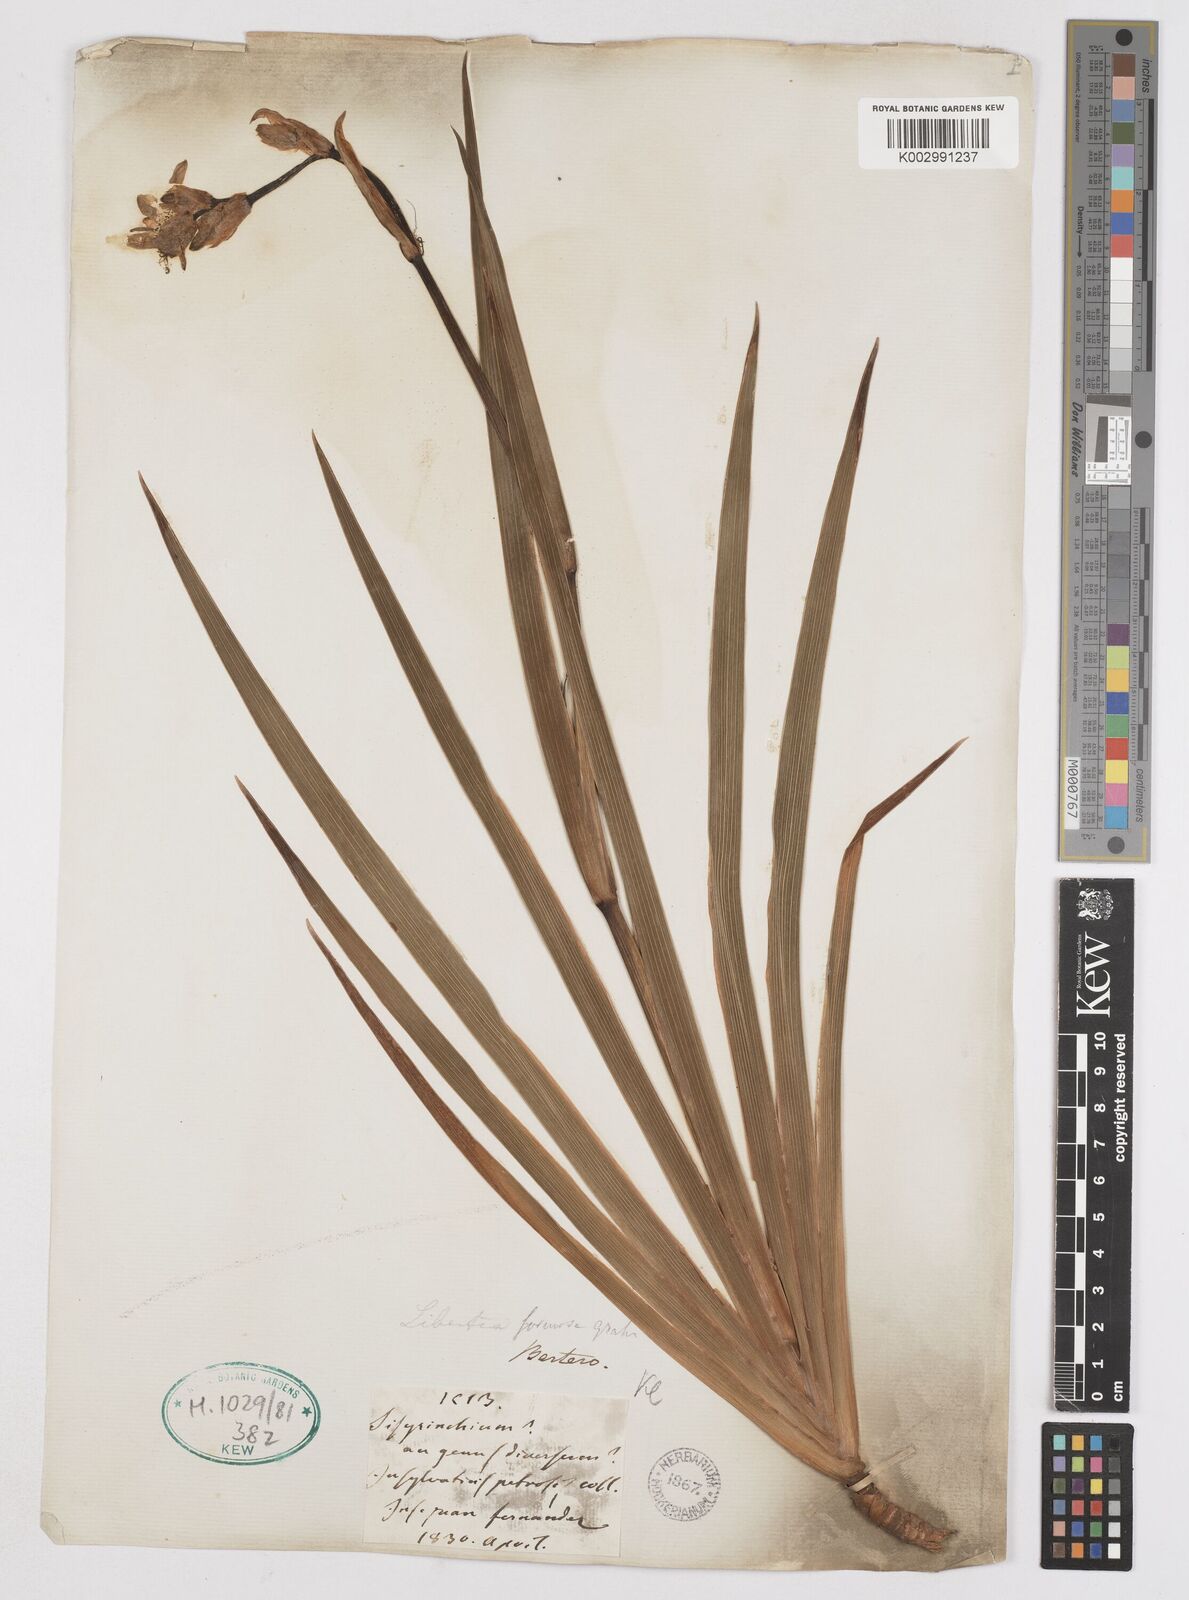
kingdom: Plantae
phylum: Tracheophyta
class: Liliopsida
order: Asparagales
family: Iridaceae
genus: Libertia
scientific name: Libertia chilensis
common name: Satin flower
